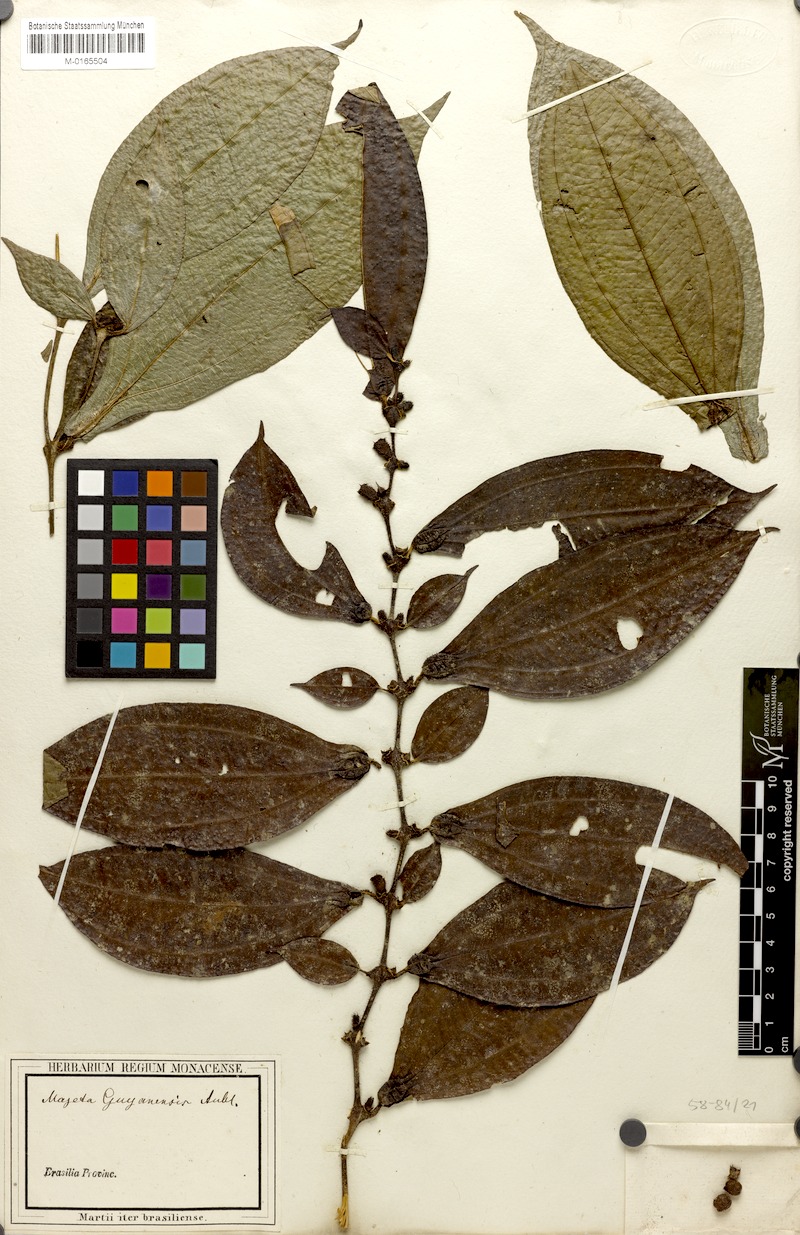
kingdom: Plantae
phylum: Tracheophyta
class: Magnoliopsida
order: Myrtales
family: Melastomataceae
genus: Miconia
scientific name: Miconia mayeta
